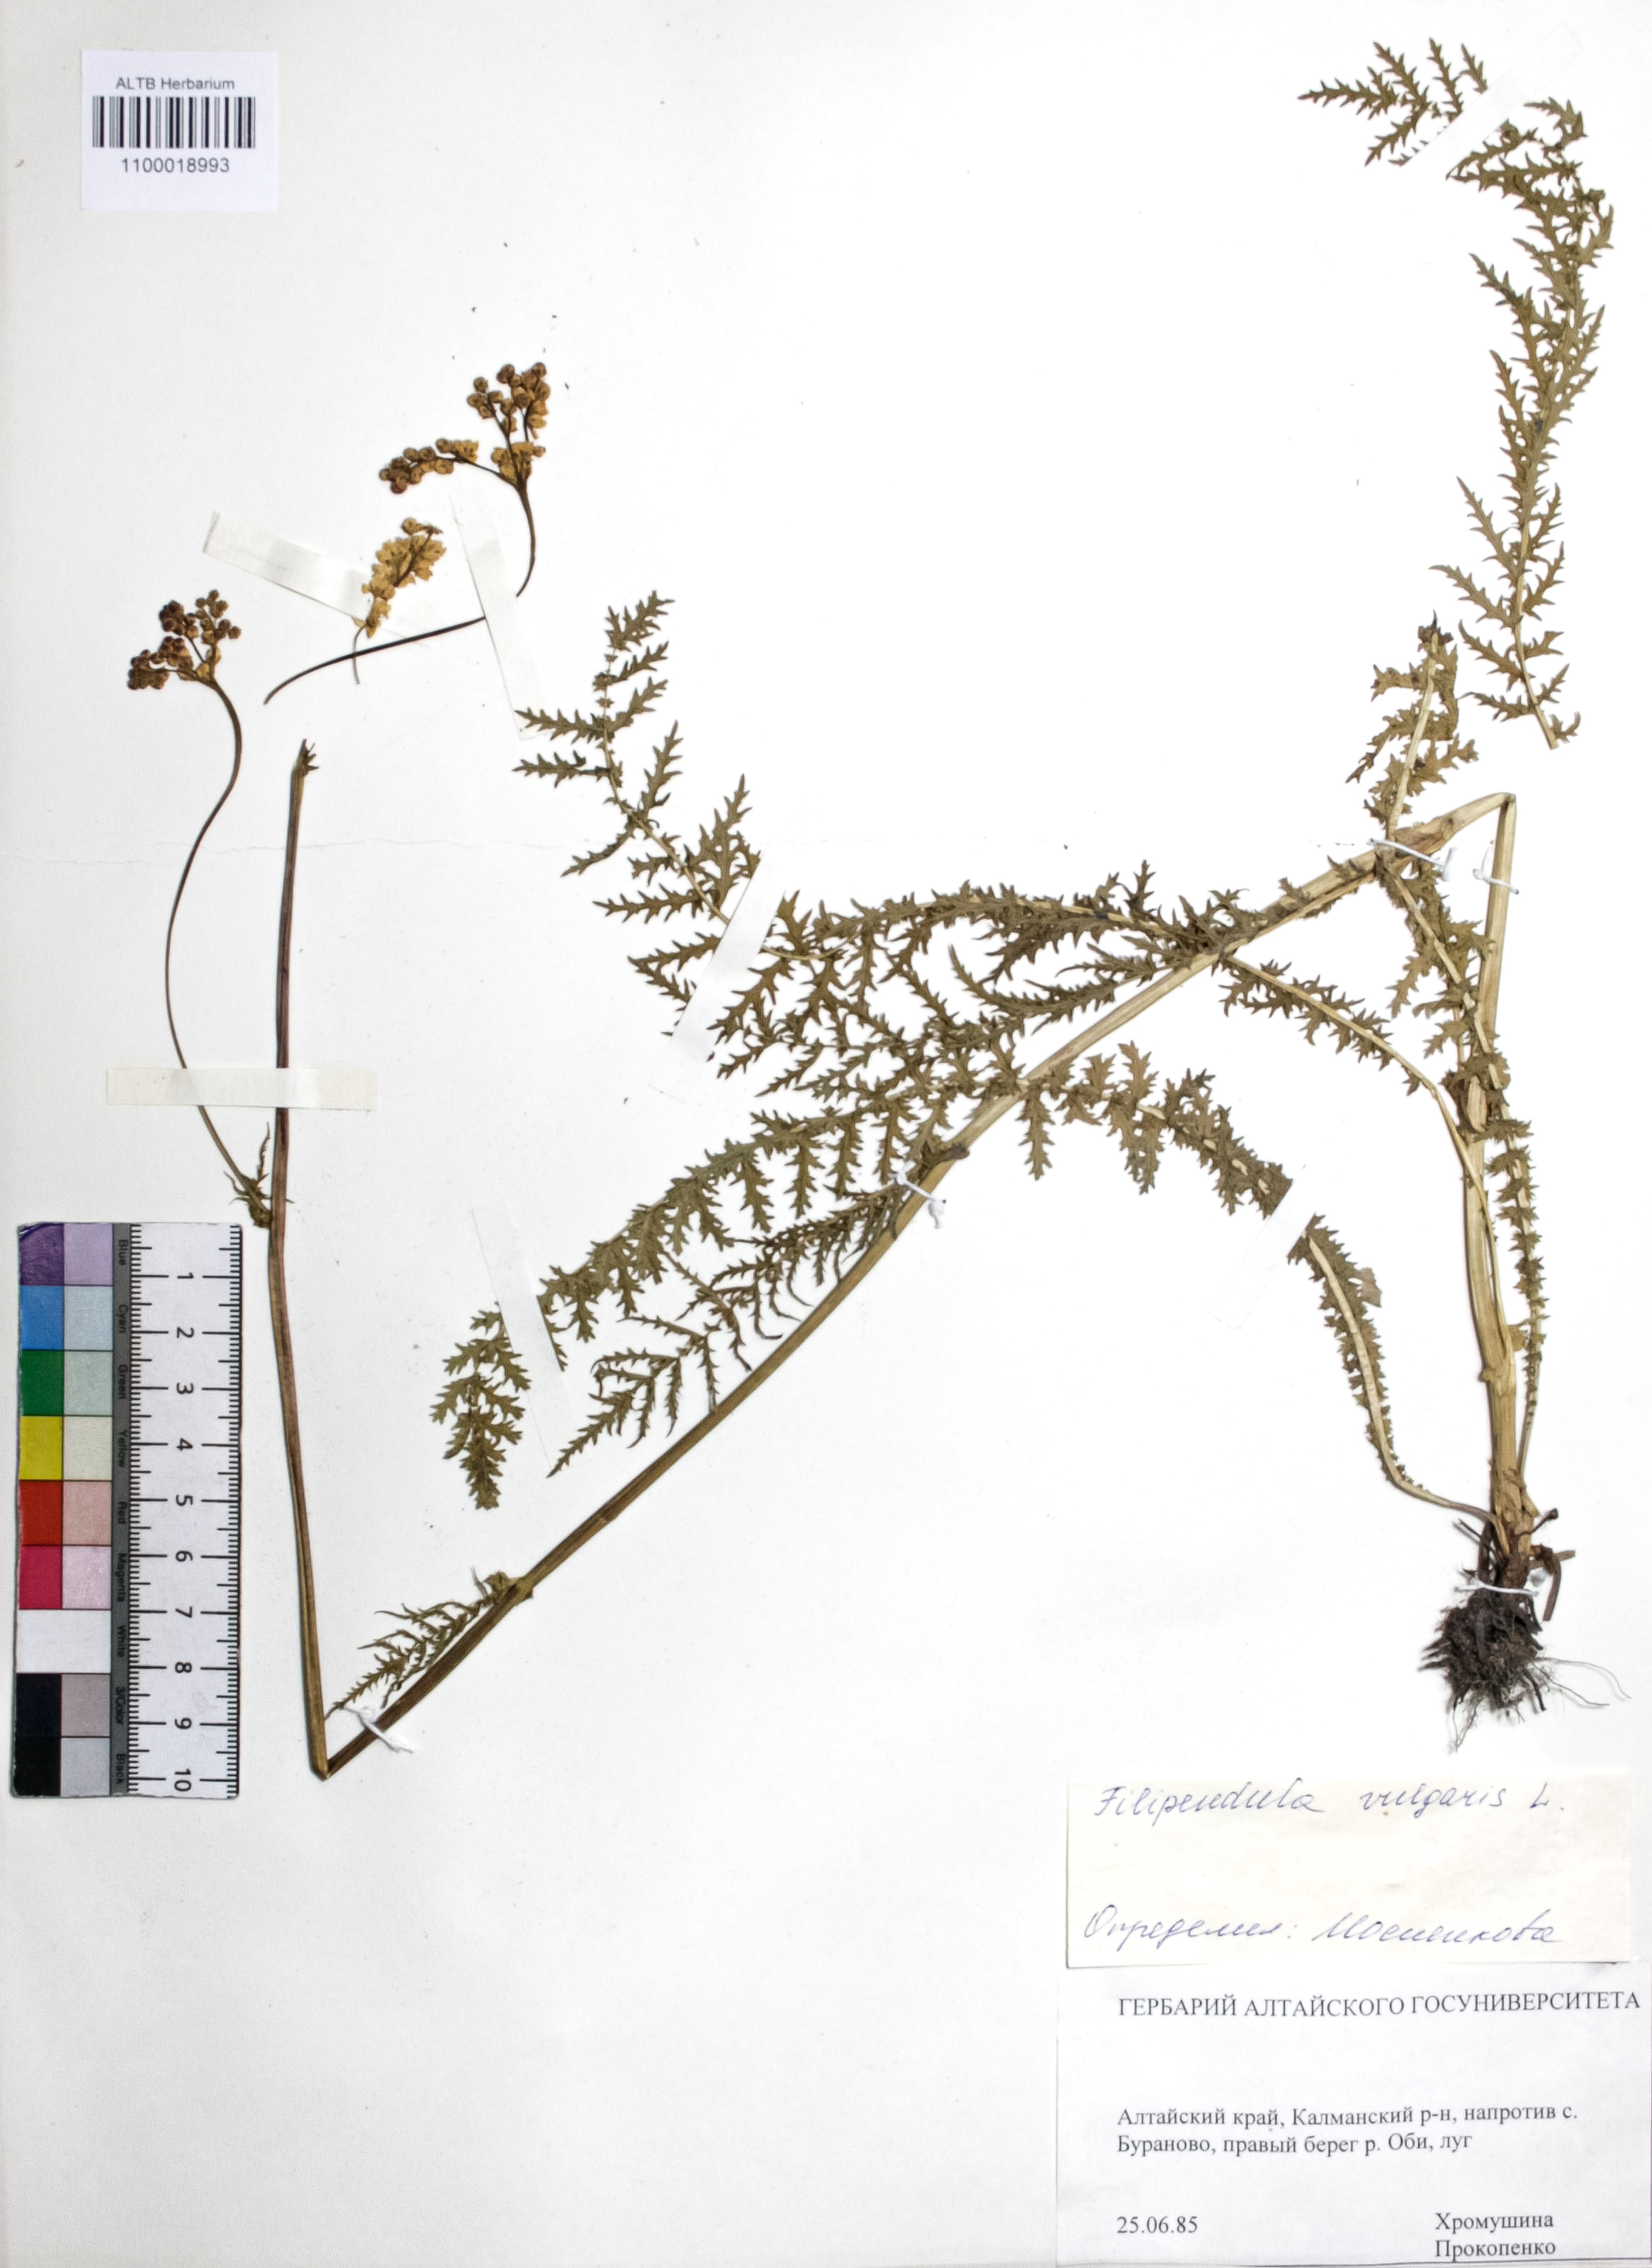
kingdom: Plantae
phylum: Tracheophyta
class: Magnoliopsida
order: Rosales
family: Rosaceae
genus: Filipendula
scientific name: Filipendula vulgaris
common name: Dropwort
